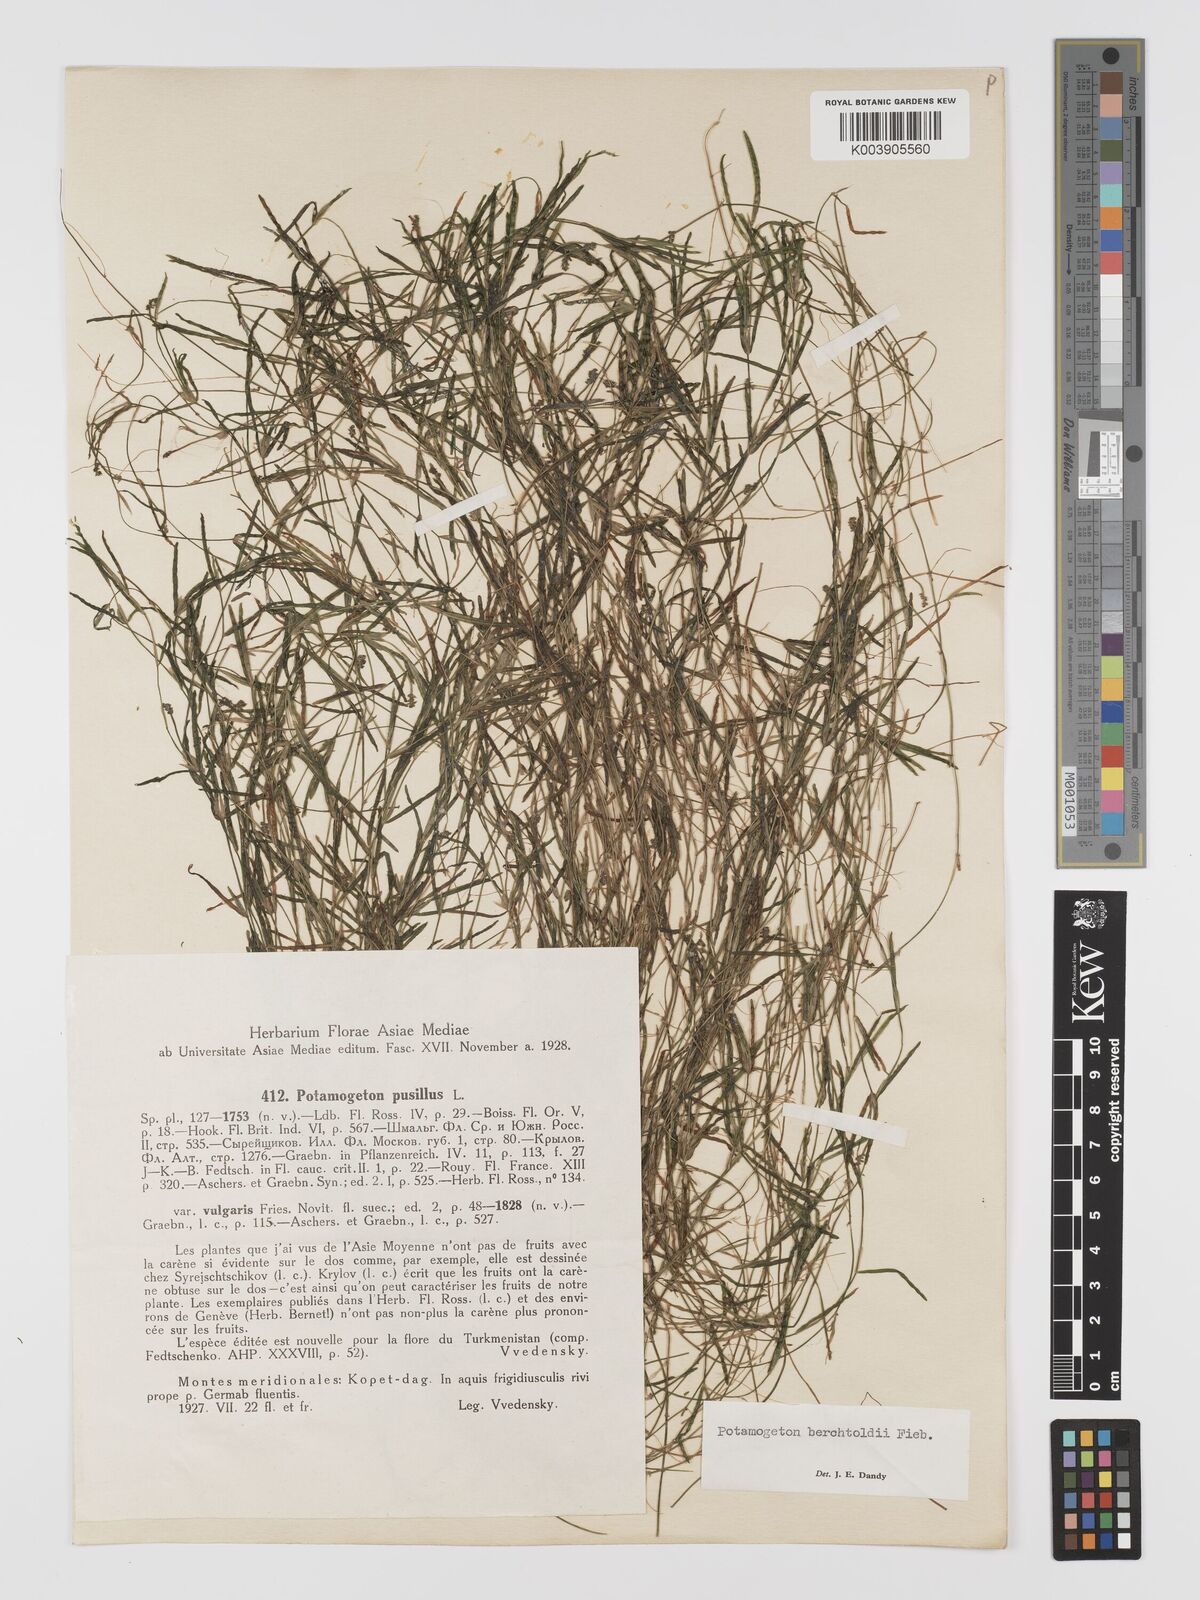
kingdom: Plantae
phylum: Tracheophyta
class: Liliopsida
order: Alismatales
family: Potamogetonaceae
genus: Potamogeton
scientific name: Potamogeton berchtoldii
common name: Small pondweed
